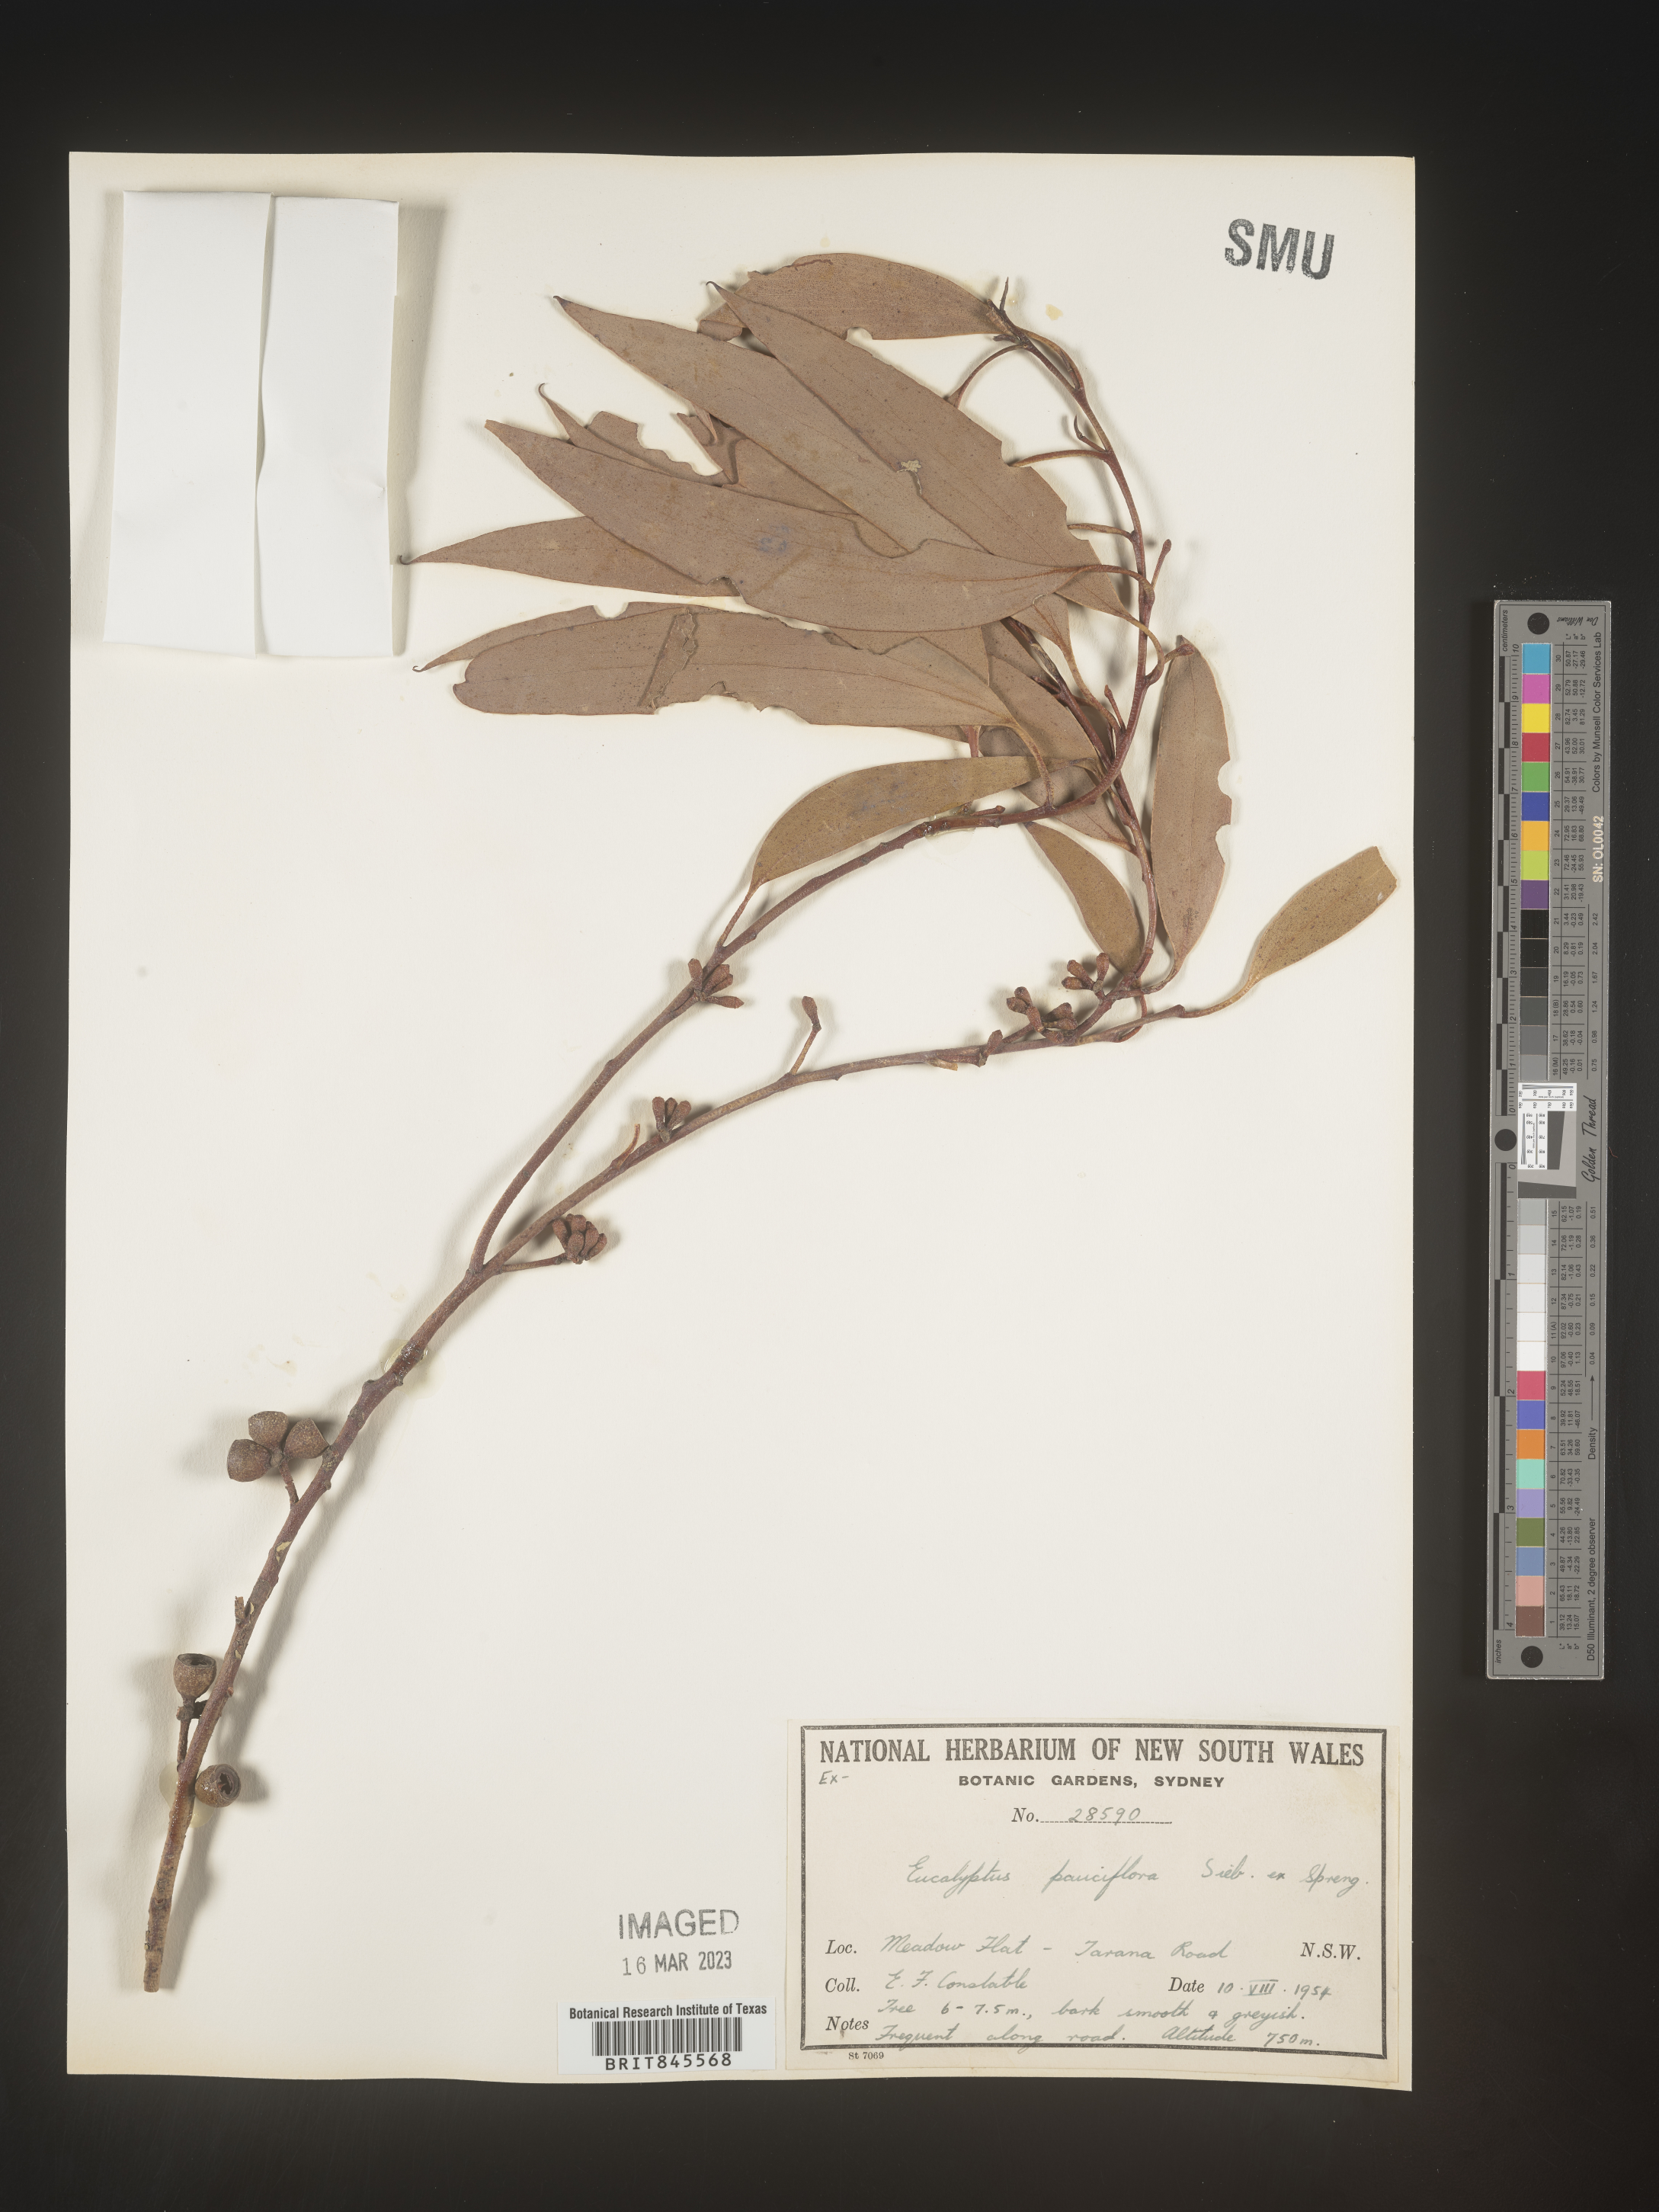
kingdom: Plantae
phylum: Tracheophyta
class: Magnoliopsida
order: Myrtales
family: Myrtaceae
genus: Eucalyptus
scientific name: Eucalyptus
